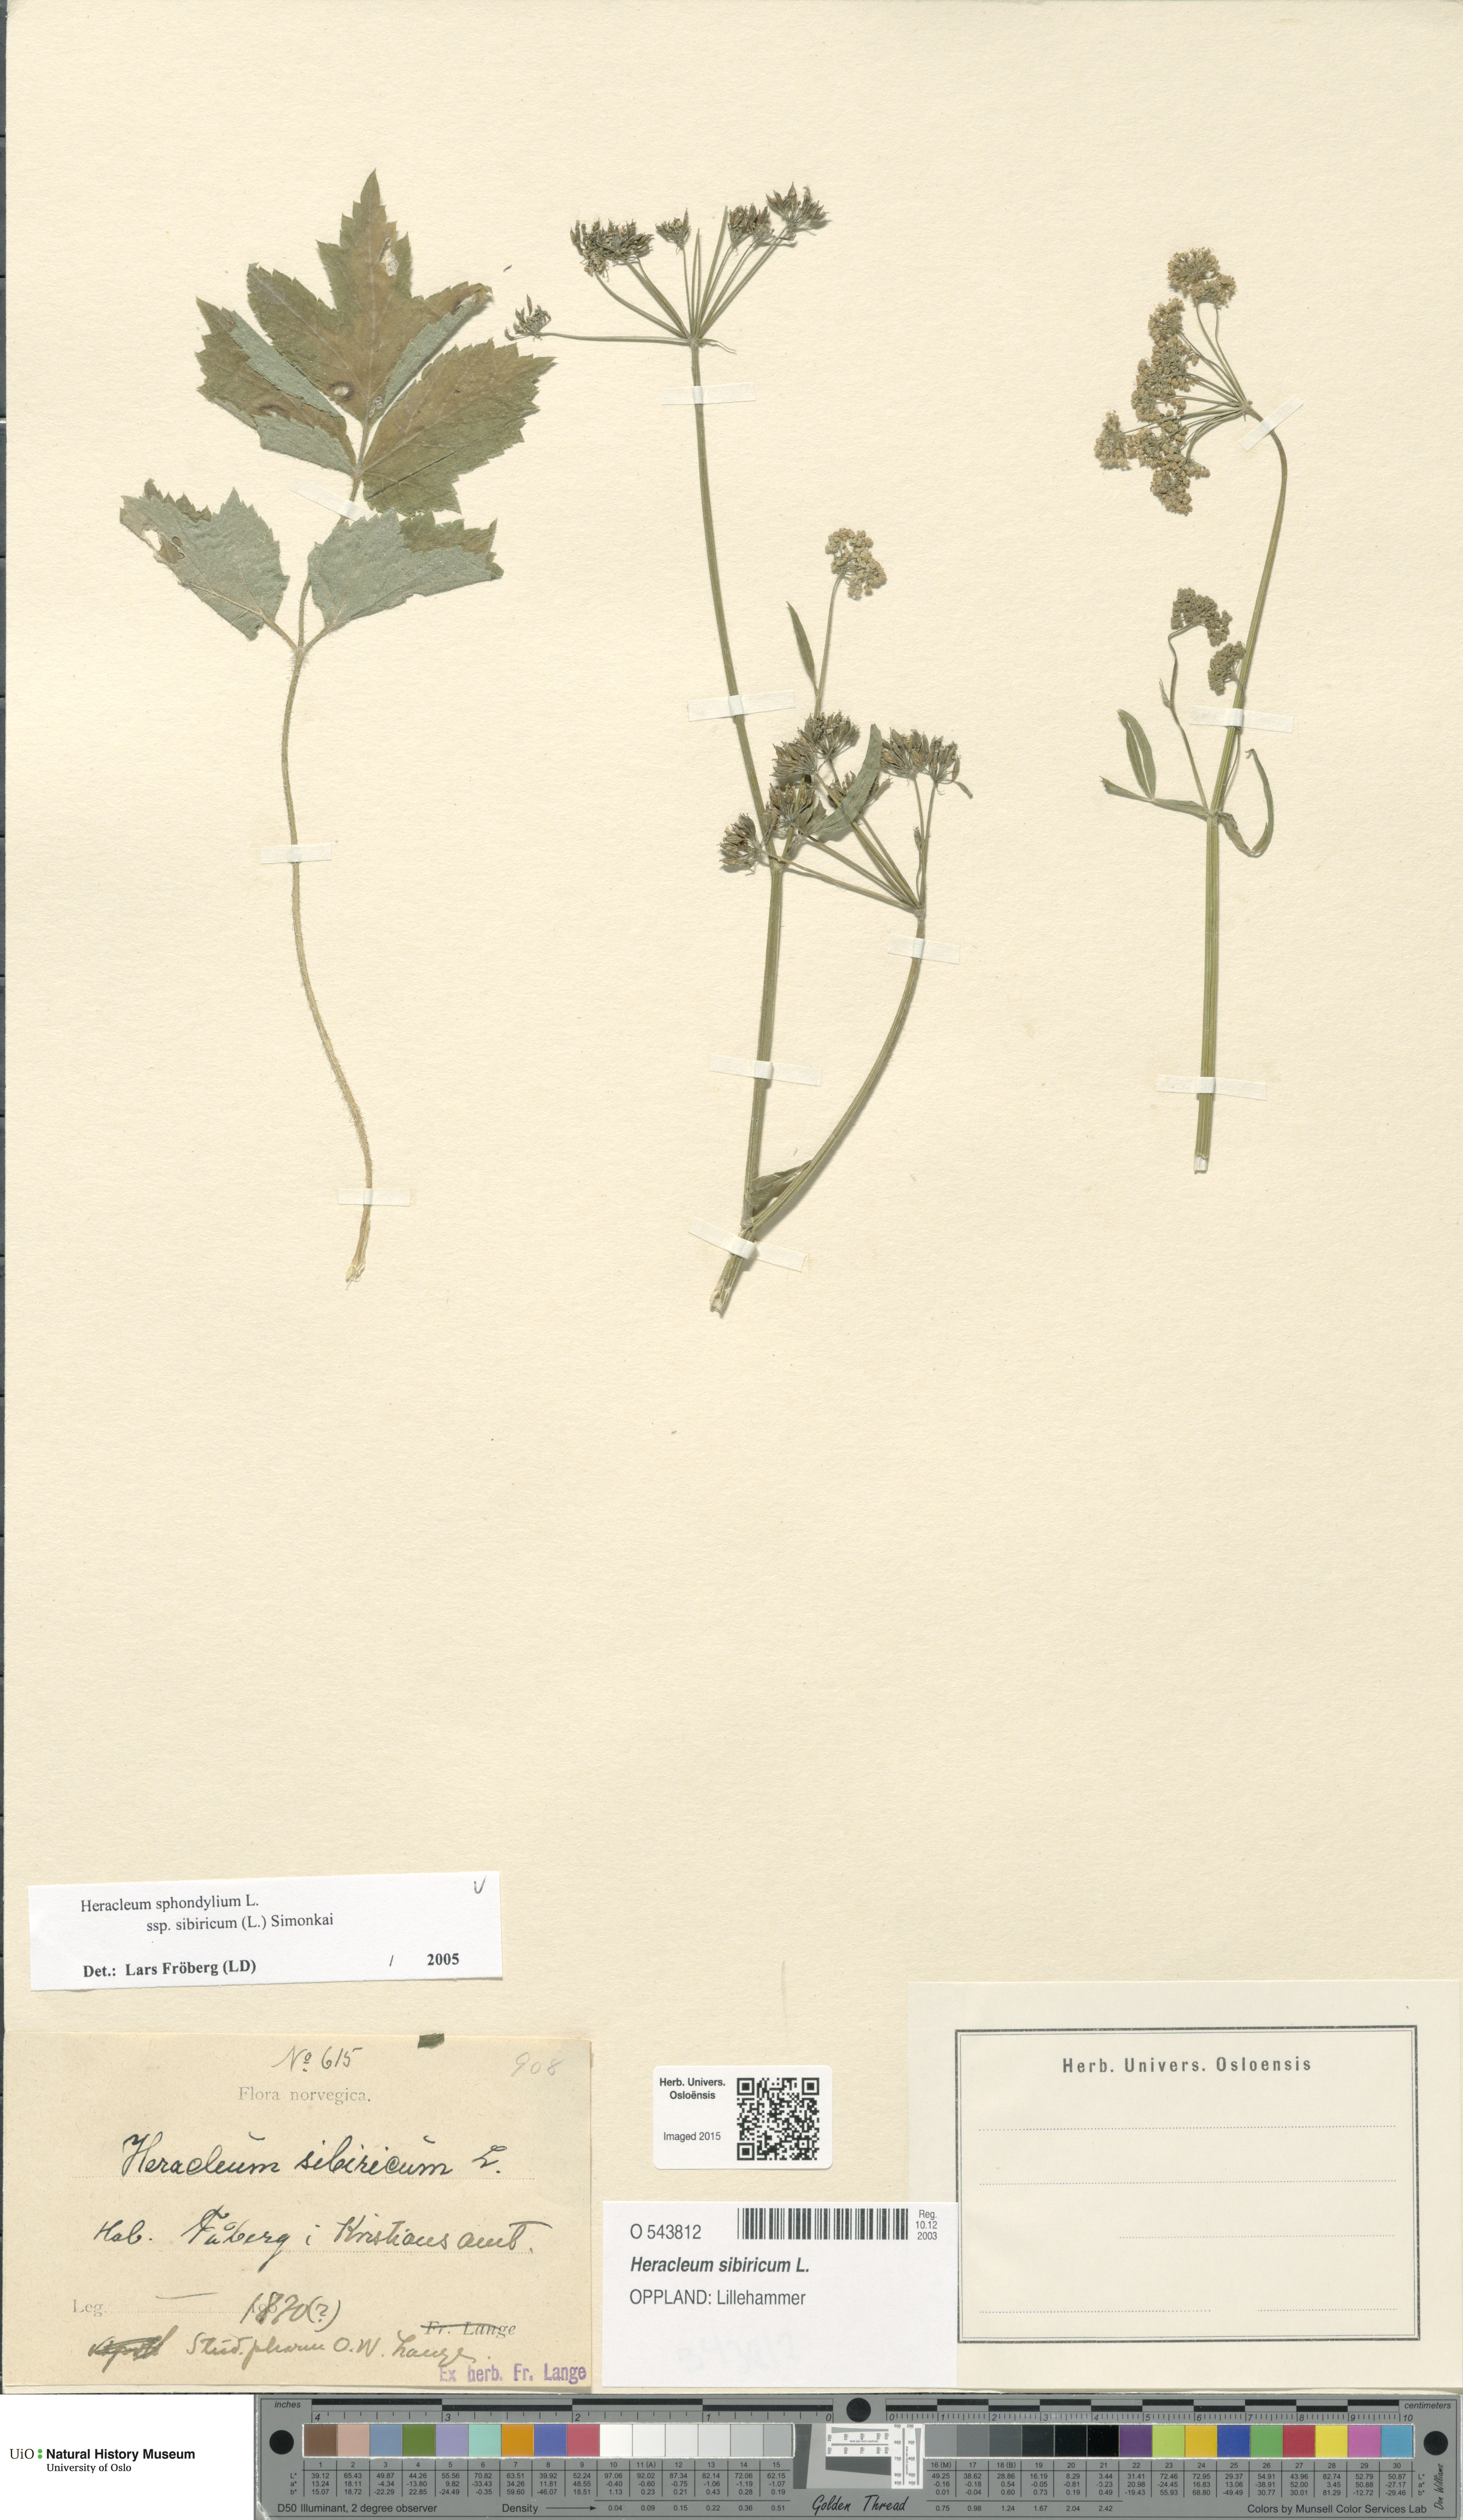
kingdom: Plantae
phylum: Tracheophyta
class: Magnoliopsida
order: Apiales
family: Apiaceae
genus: Heracleum
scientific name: Heracleum sphondylium
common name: Hogweed
